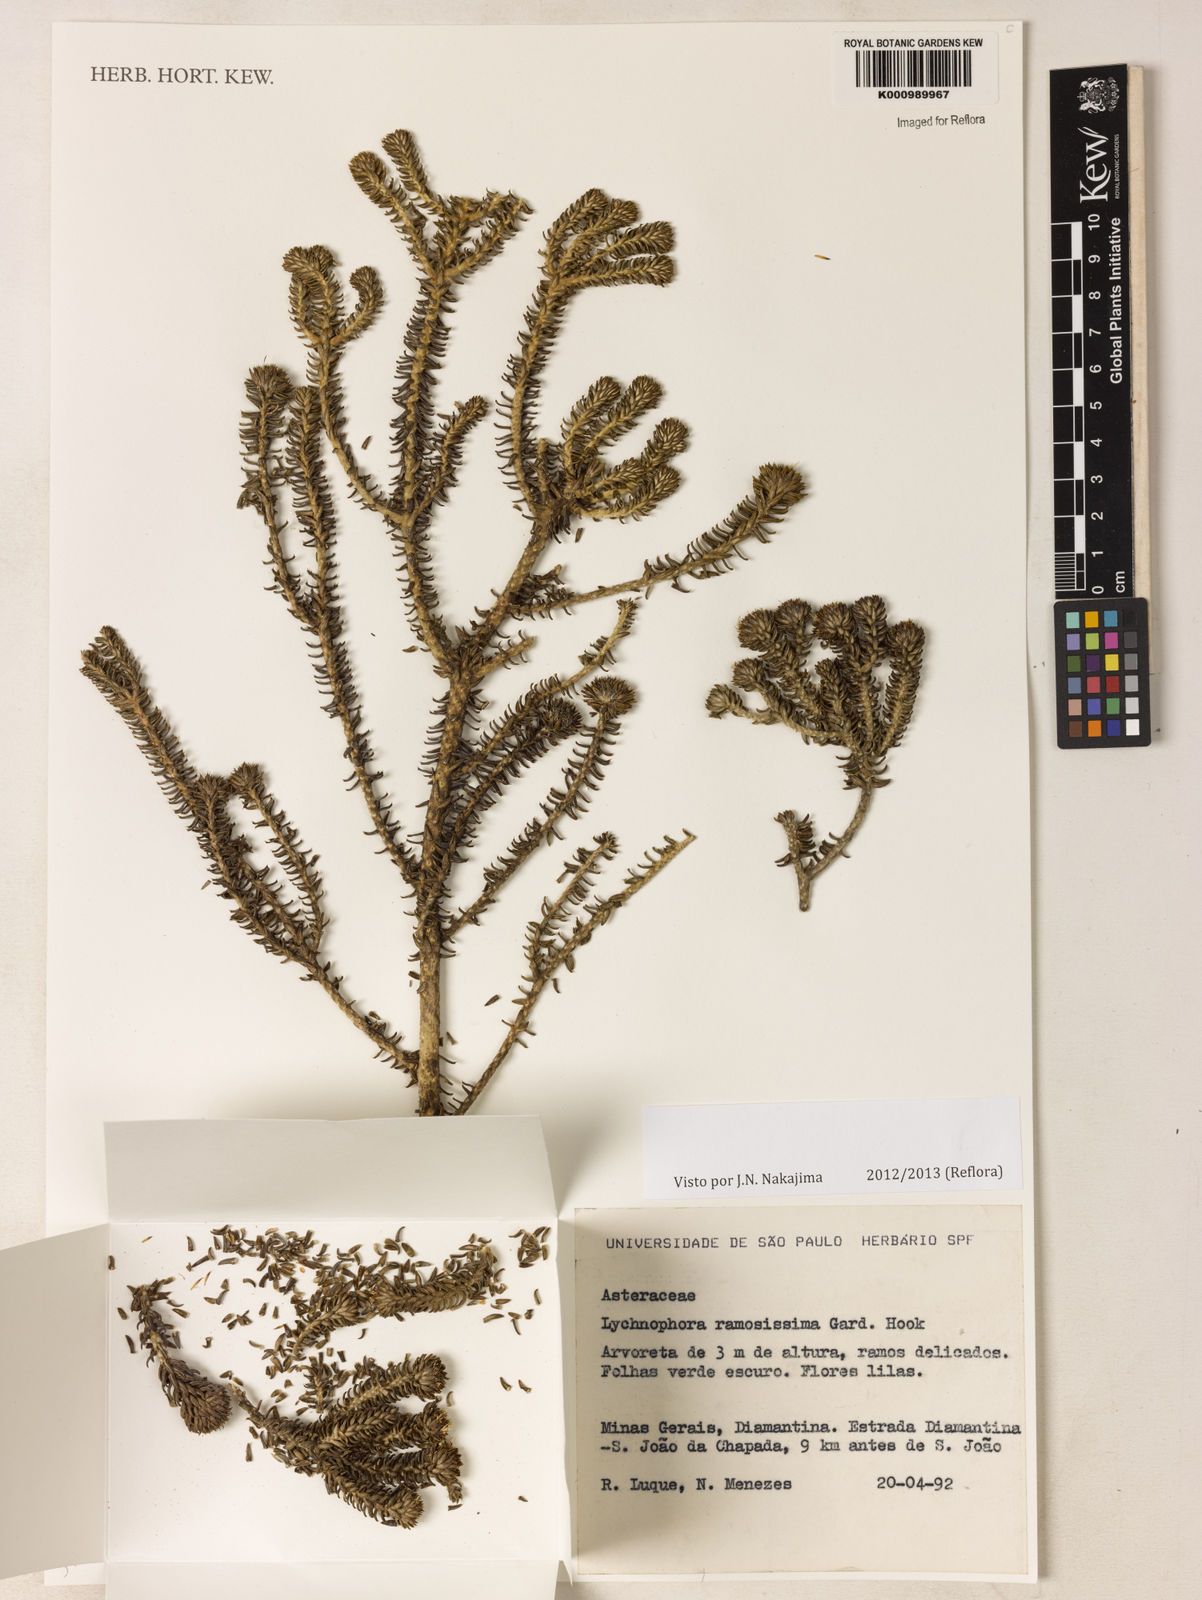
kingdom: Plantae
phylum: Tracheophyta
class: Magnoliopsida
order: Asterales
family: Asteraceae
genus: Lychnophora
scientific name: Lychnophora ramosissima
